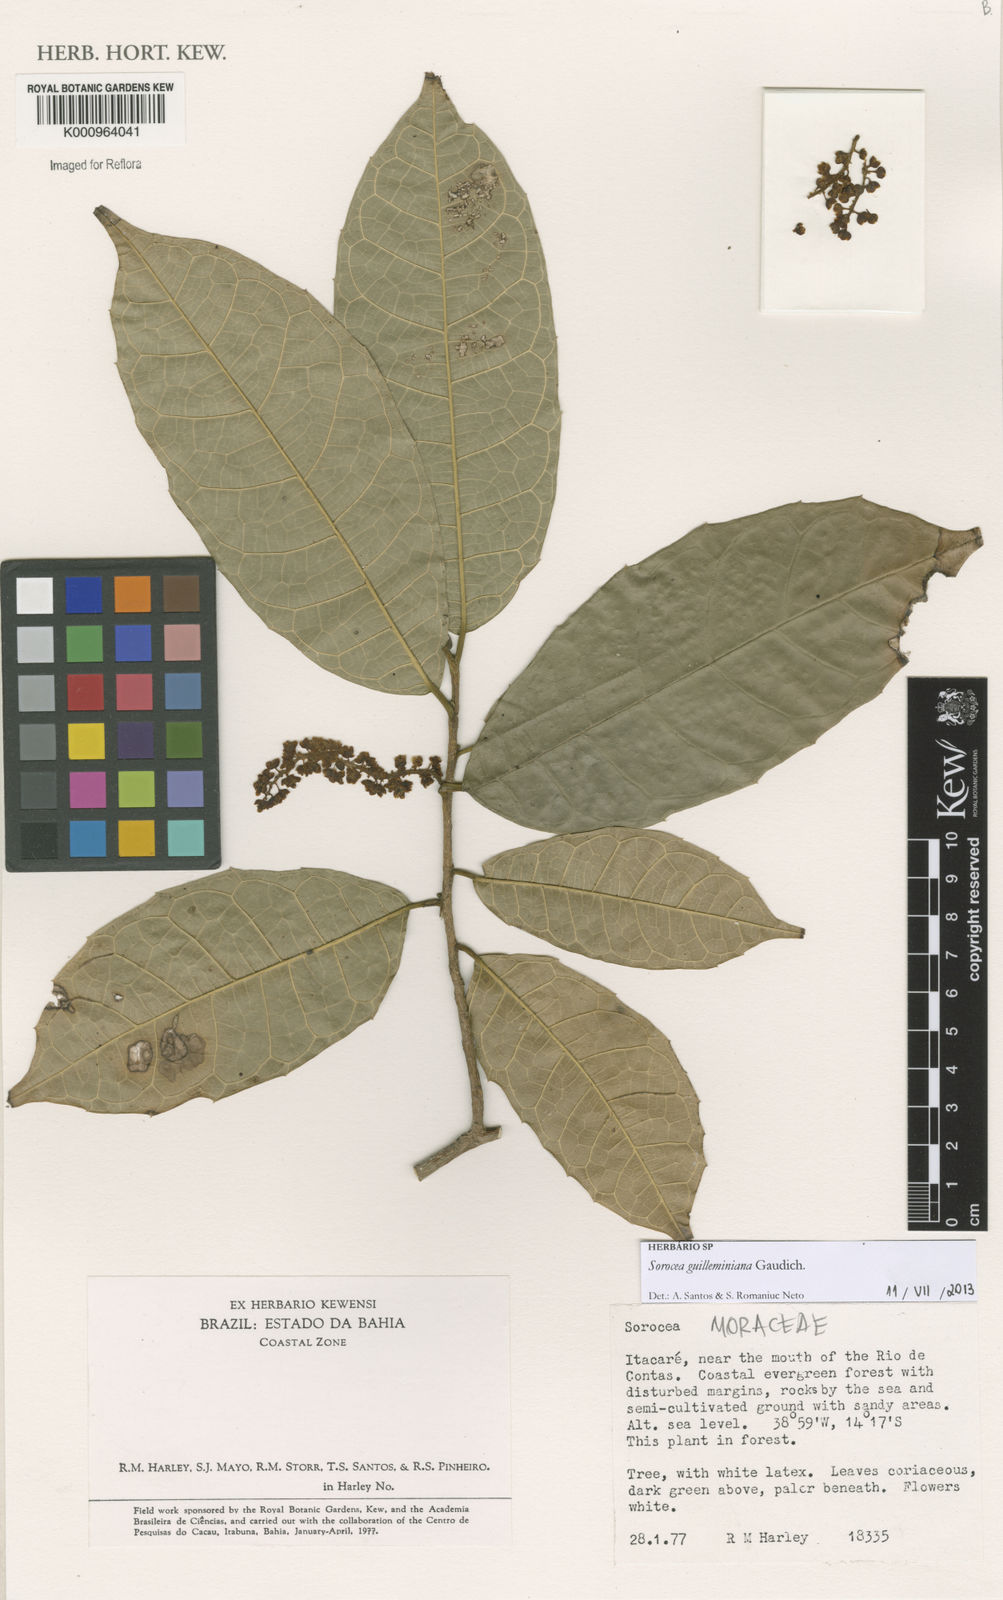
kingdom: Plantae
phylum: Tracheophyta
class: Magnoliopsida
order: Rosales
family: Moraceae
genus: Sorocea
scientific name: Sorocea guilleminiana
